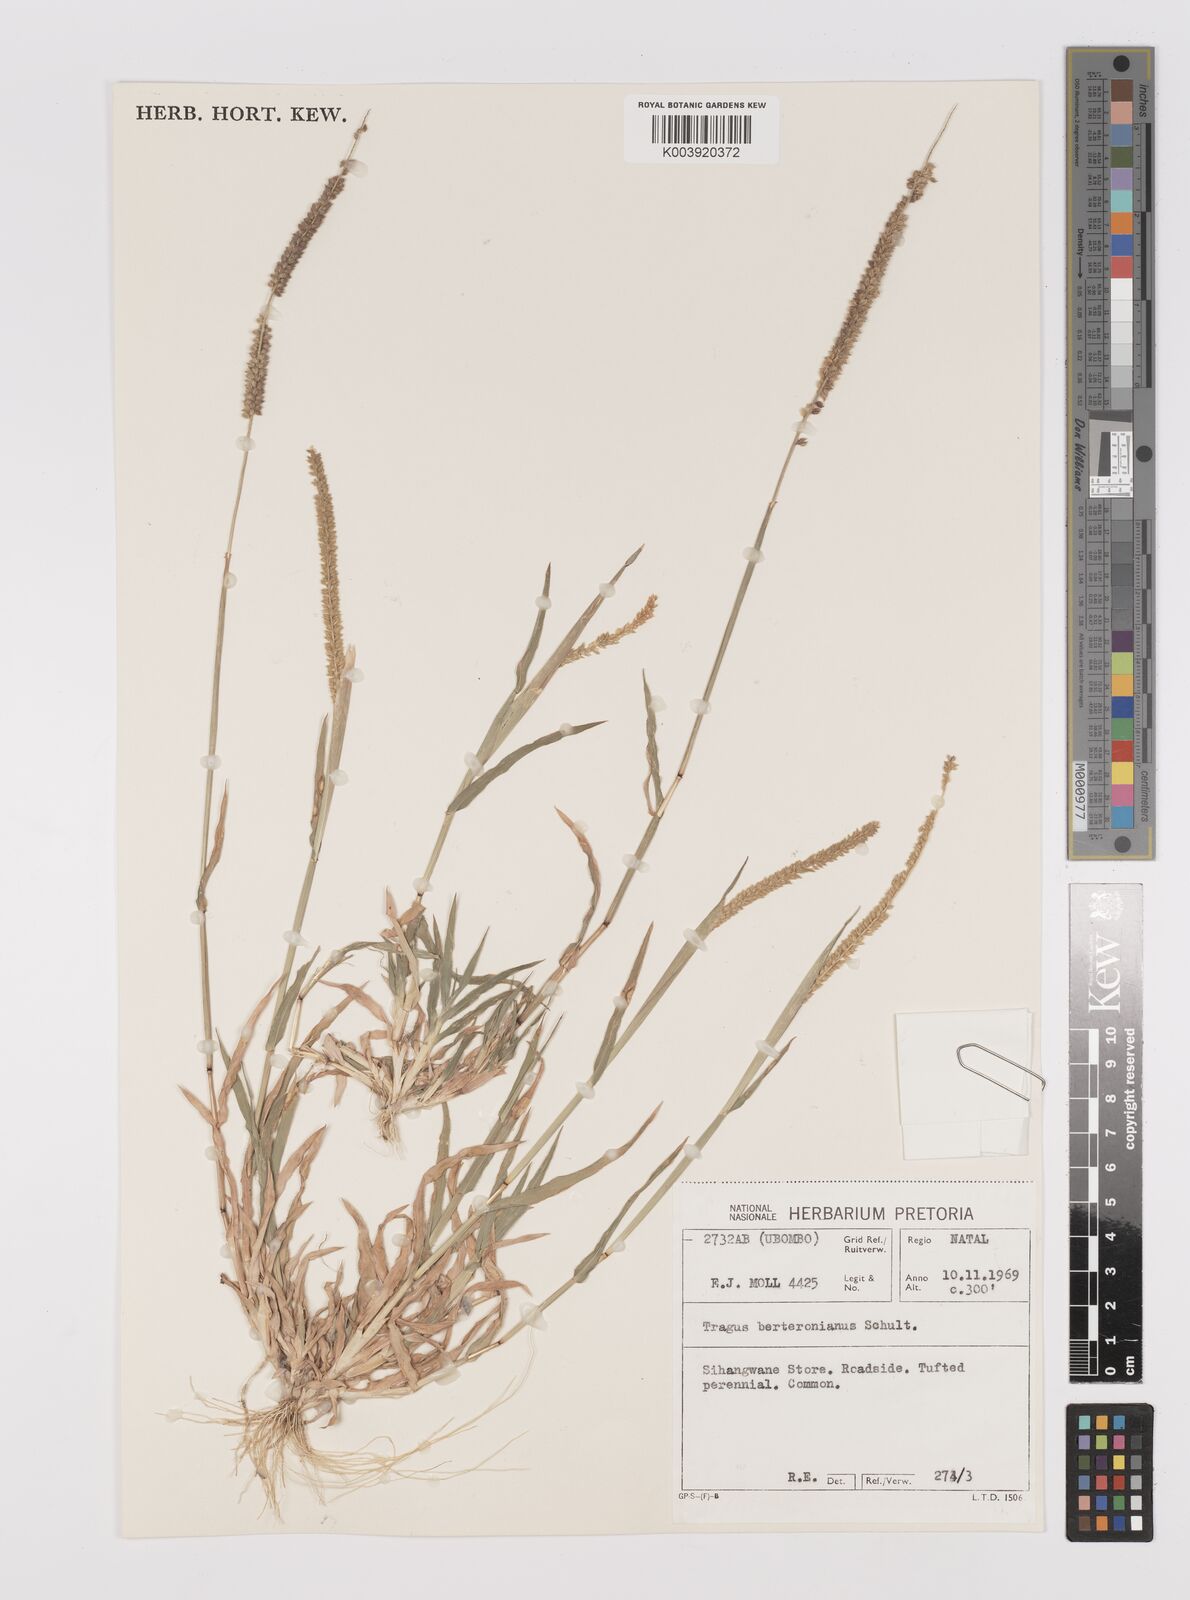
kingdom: Plantae
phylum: Tracheophyta
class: Liliopsida
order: Poales
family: Poaceae
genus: Tragus
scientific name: Tragus berteronianus
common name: African bur-grass
